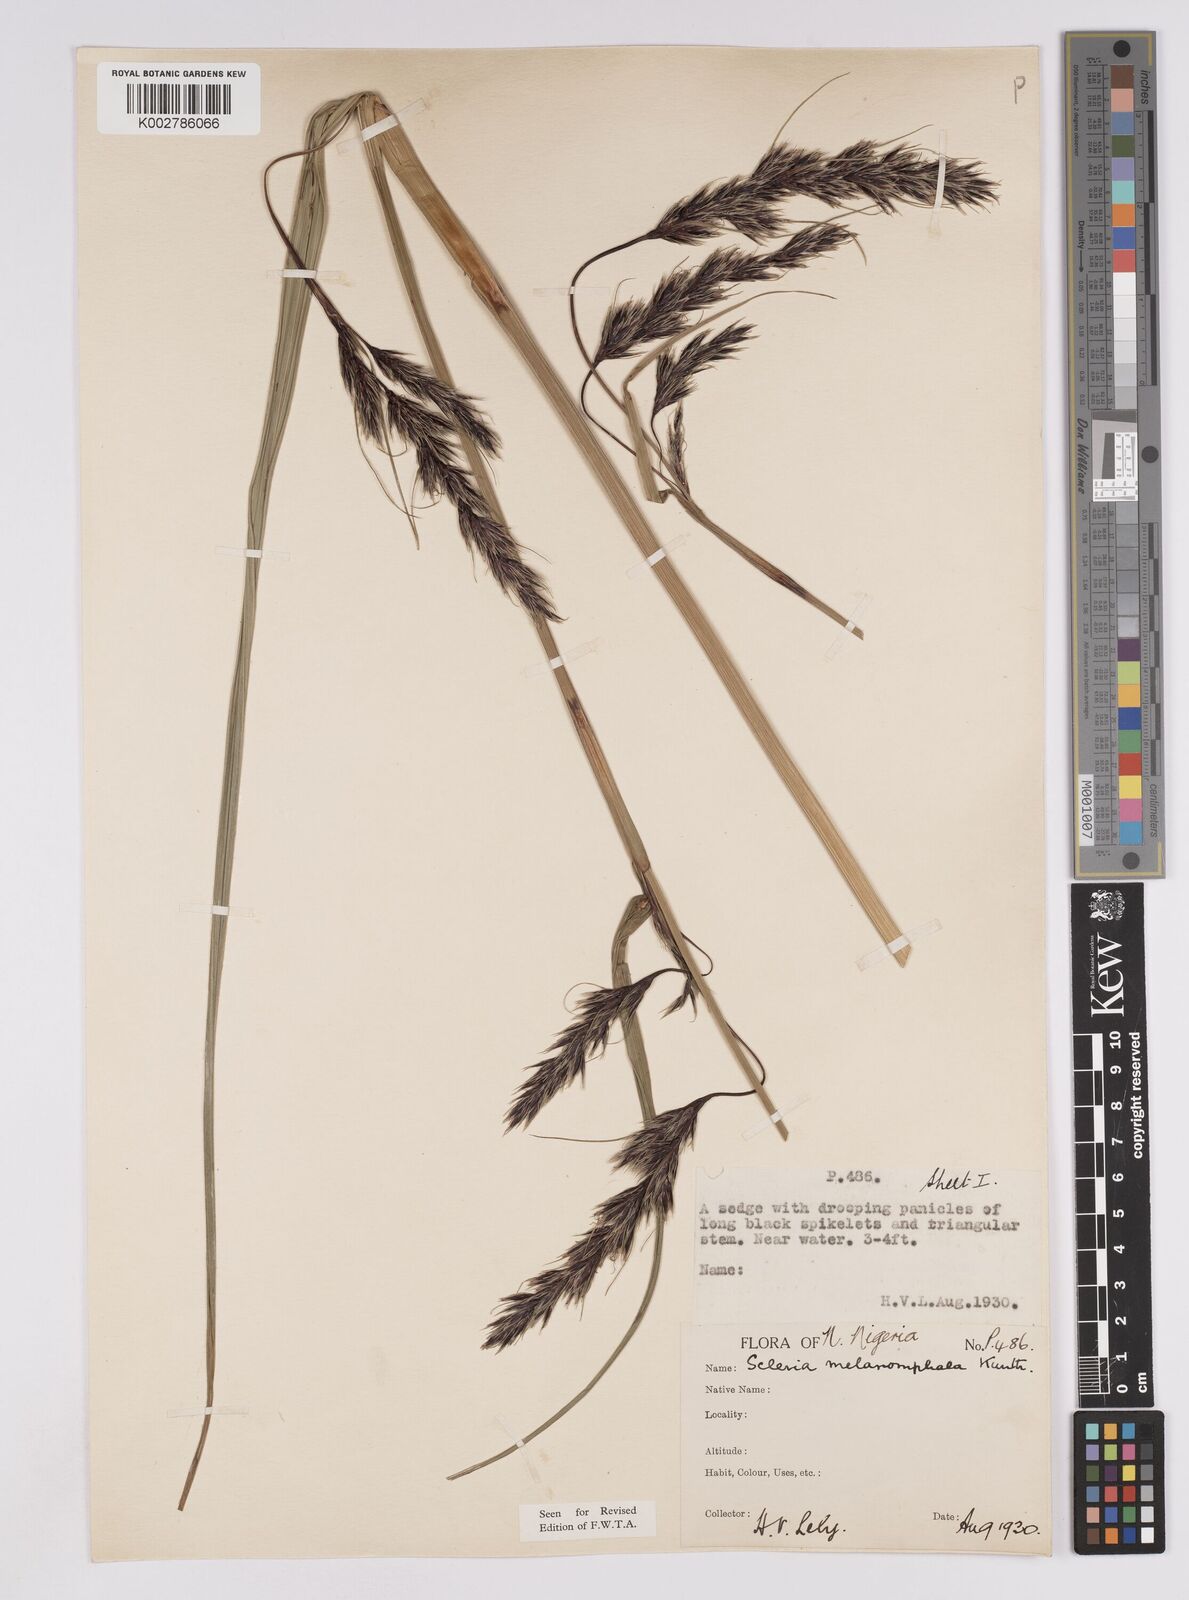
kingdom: Plantae
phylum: Tracheophyta
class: Liliopsida
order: Poales
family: Cyperaceae
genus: Scleria
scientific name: Scleria melanomphala
